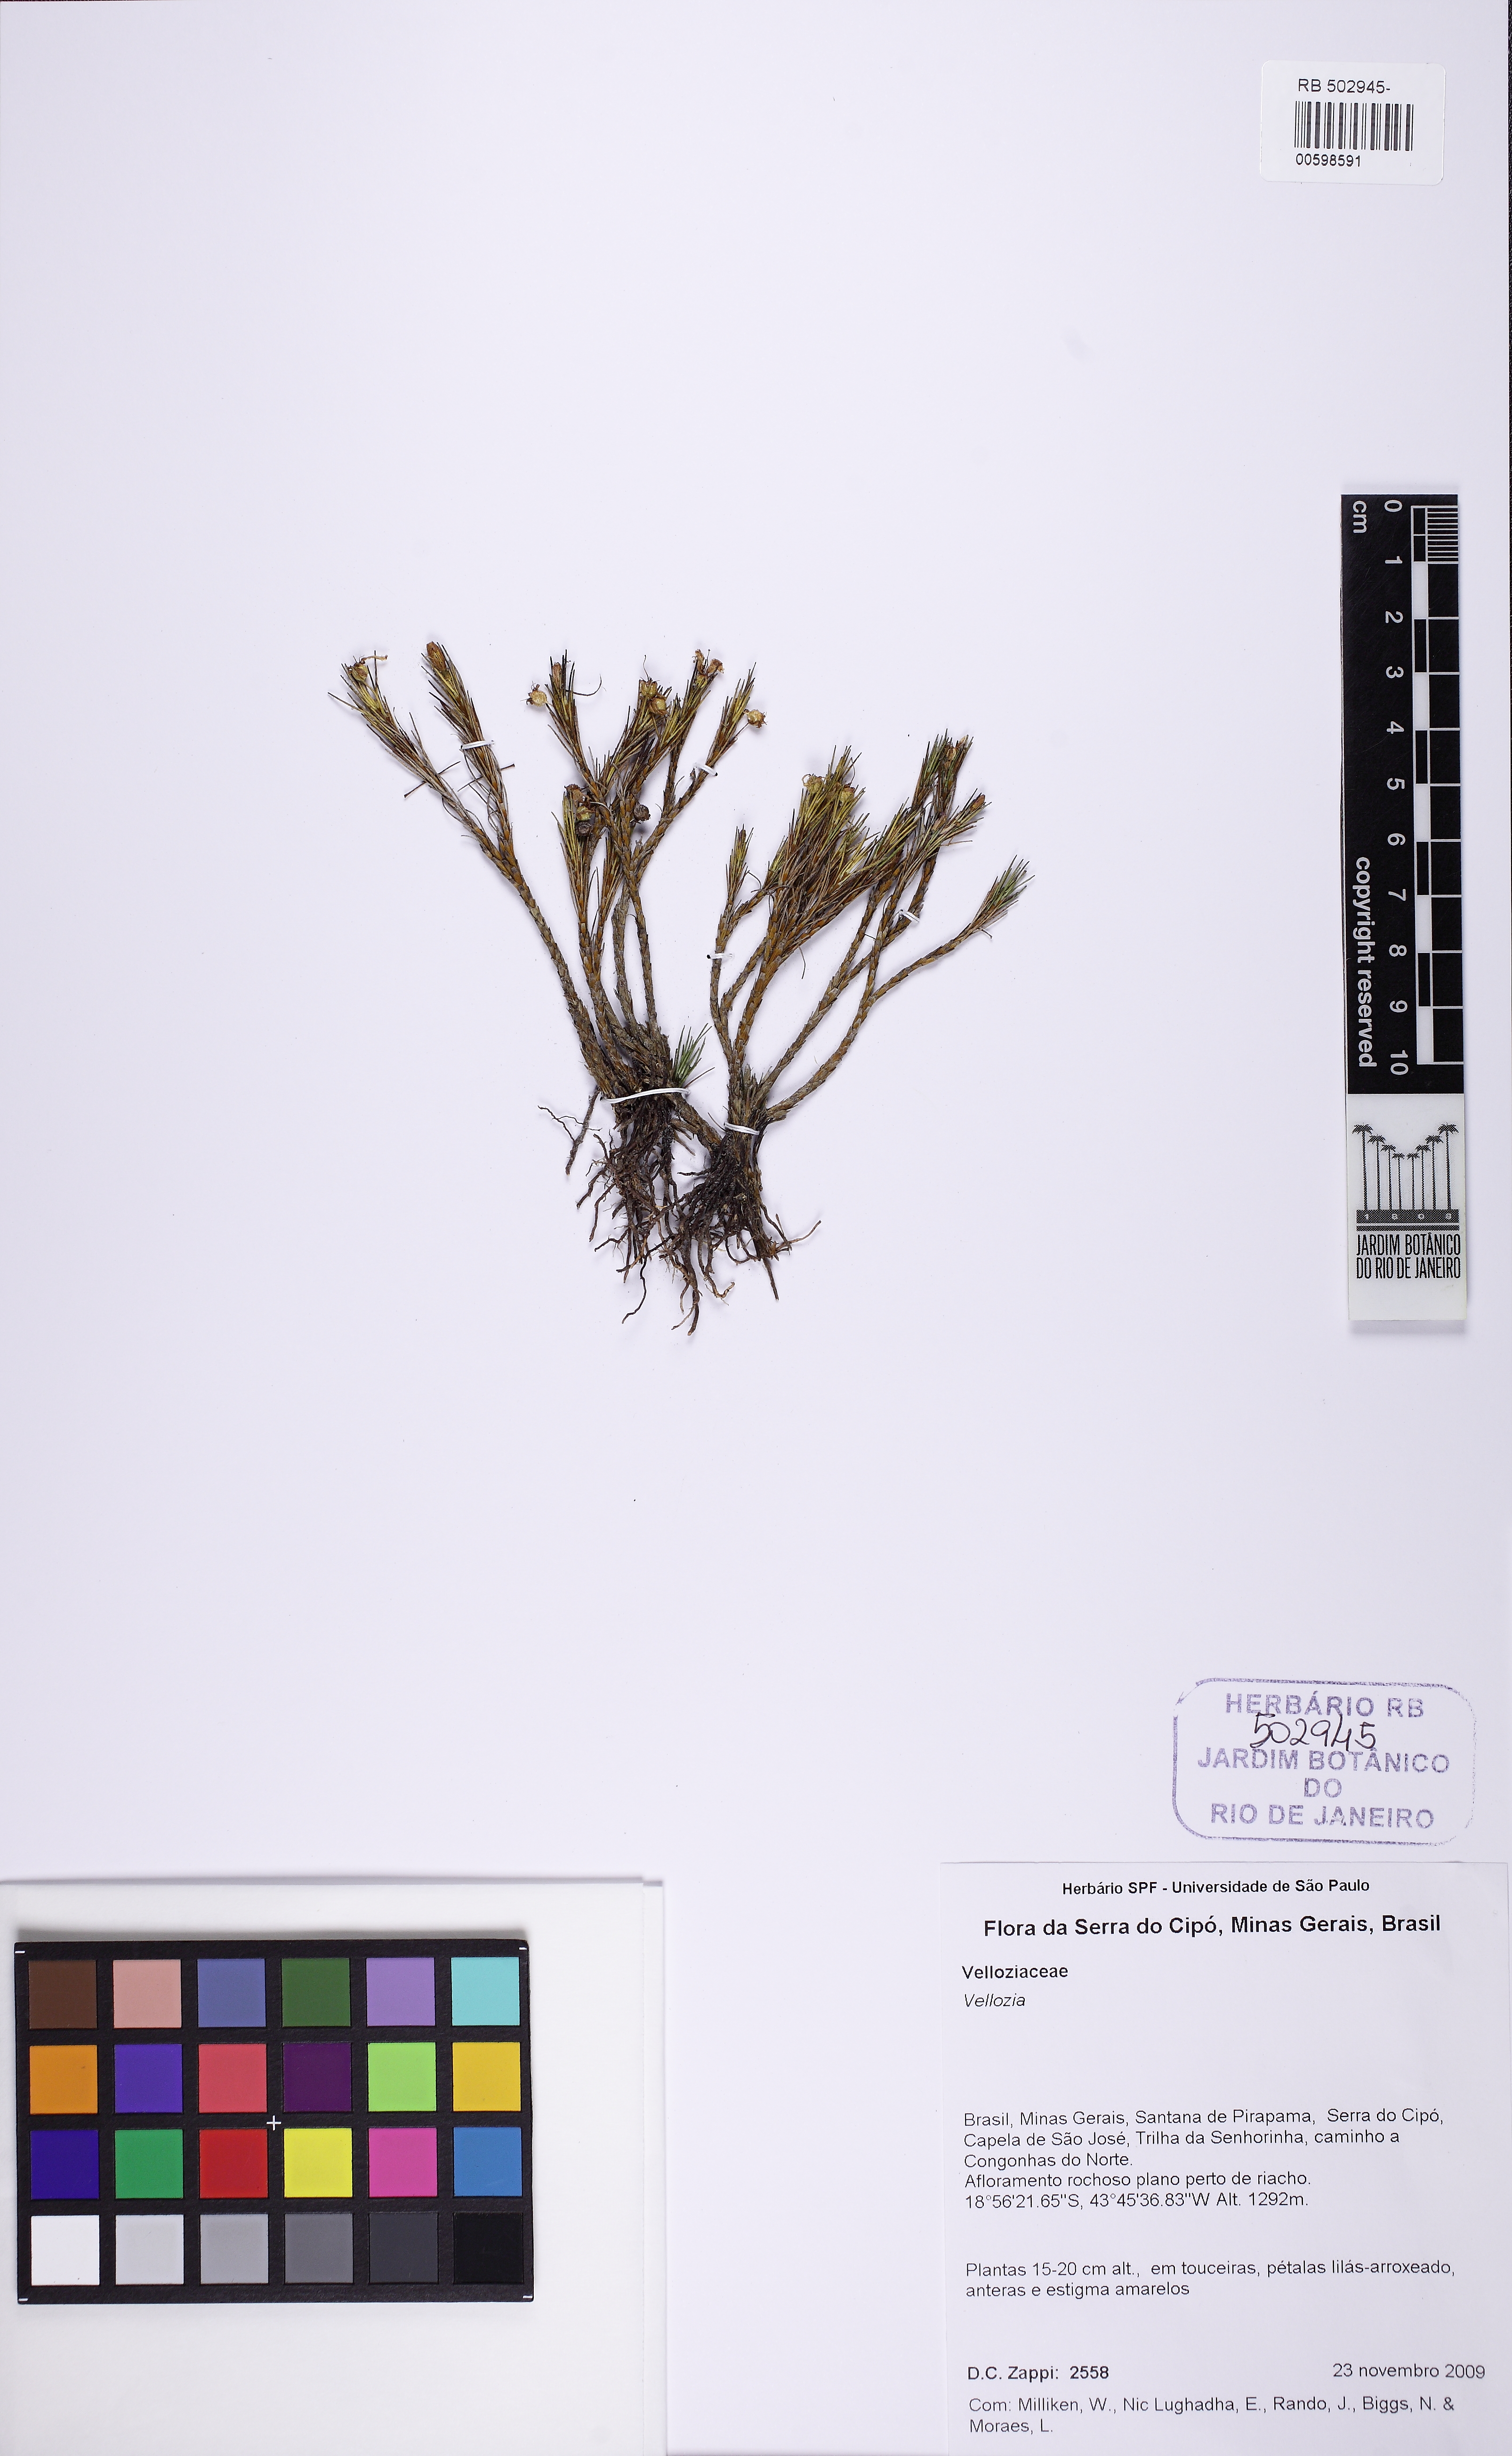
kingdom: Plantae
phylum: Tracheophyta
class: Liliopsida
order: Pandanales
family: Velloziaceae
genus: Vellozia
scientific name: Vellozia
